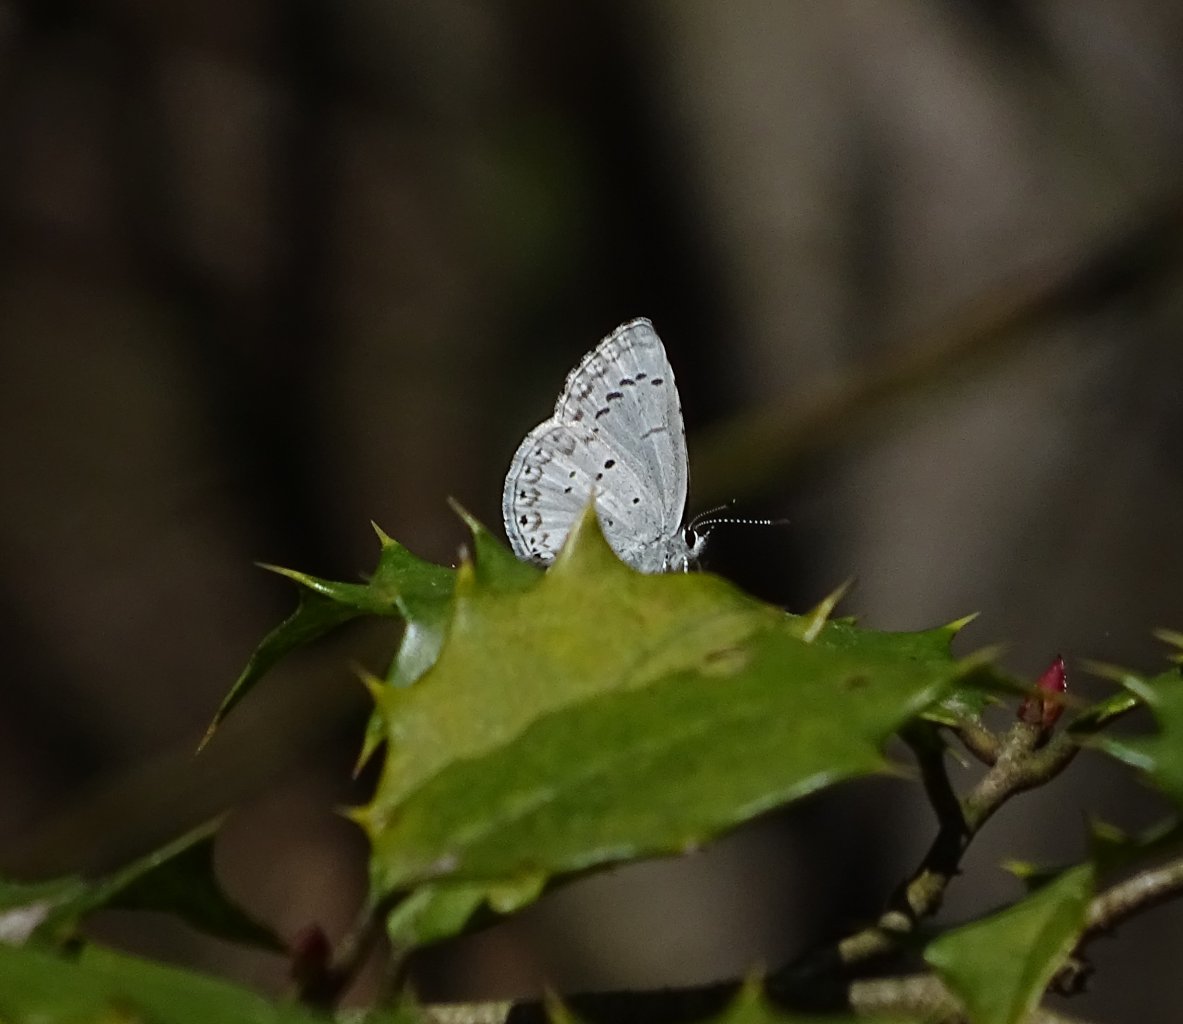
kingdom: Animalia
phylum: Arthropoda
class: Insecta
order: Lepidoptera
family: Lycaenidae
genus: Celastrina
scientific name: Celastrina idella
